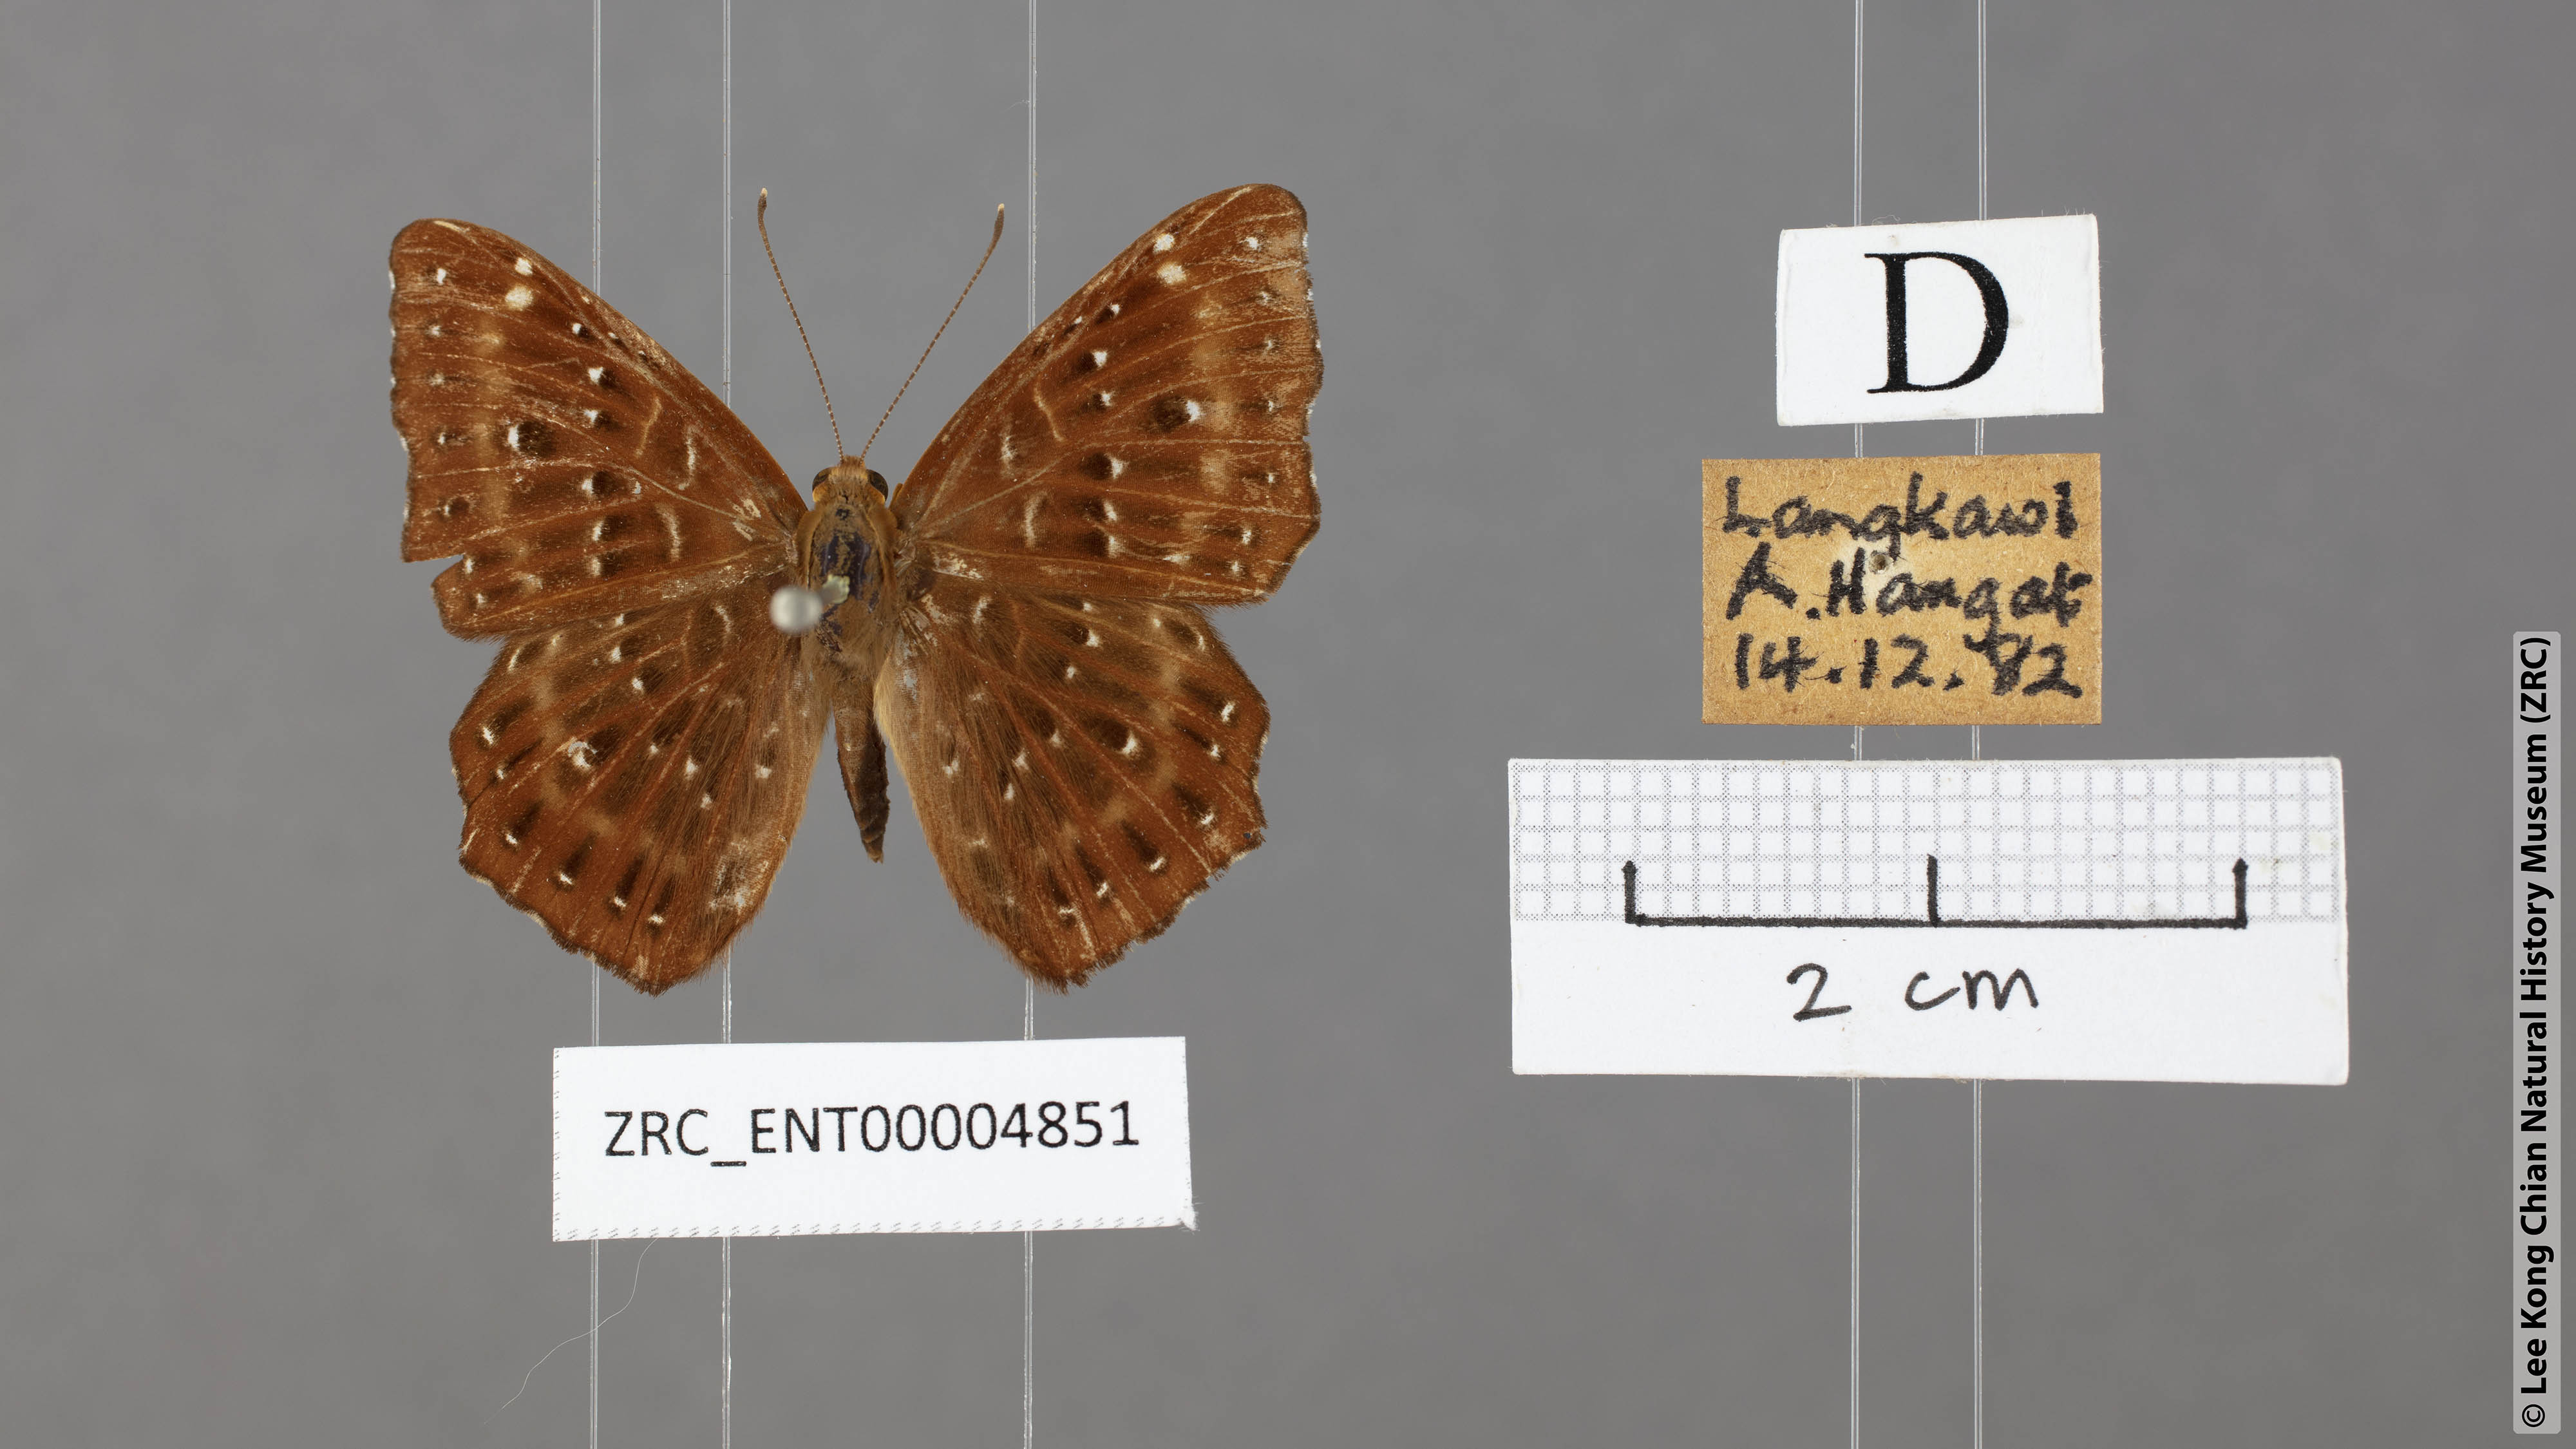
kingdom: Animalia
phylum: Arthropoda
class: Insecta
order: Lepidoptera
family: Riodinidae
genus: Zemeros
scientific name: Zemeros flegyas
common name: Punchinello
